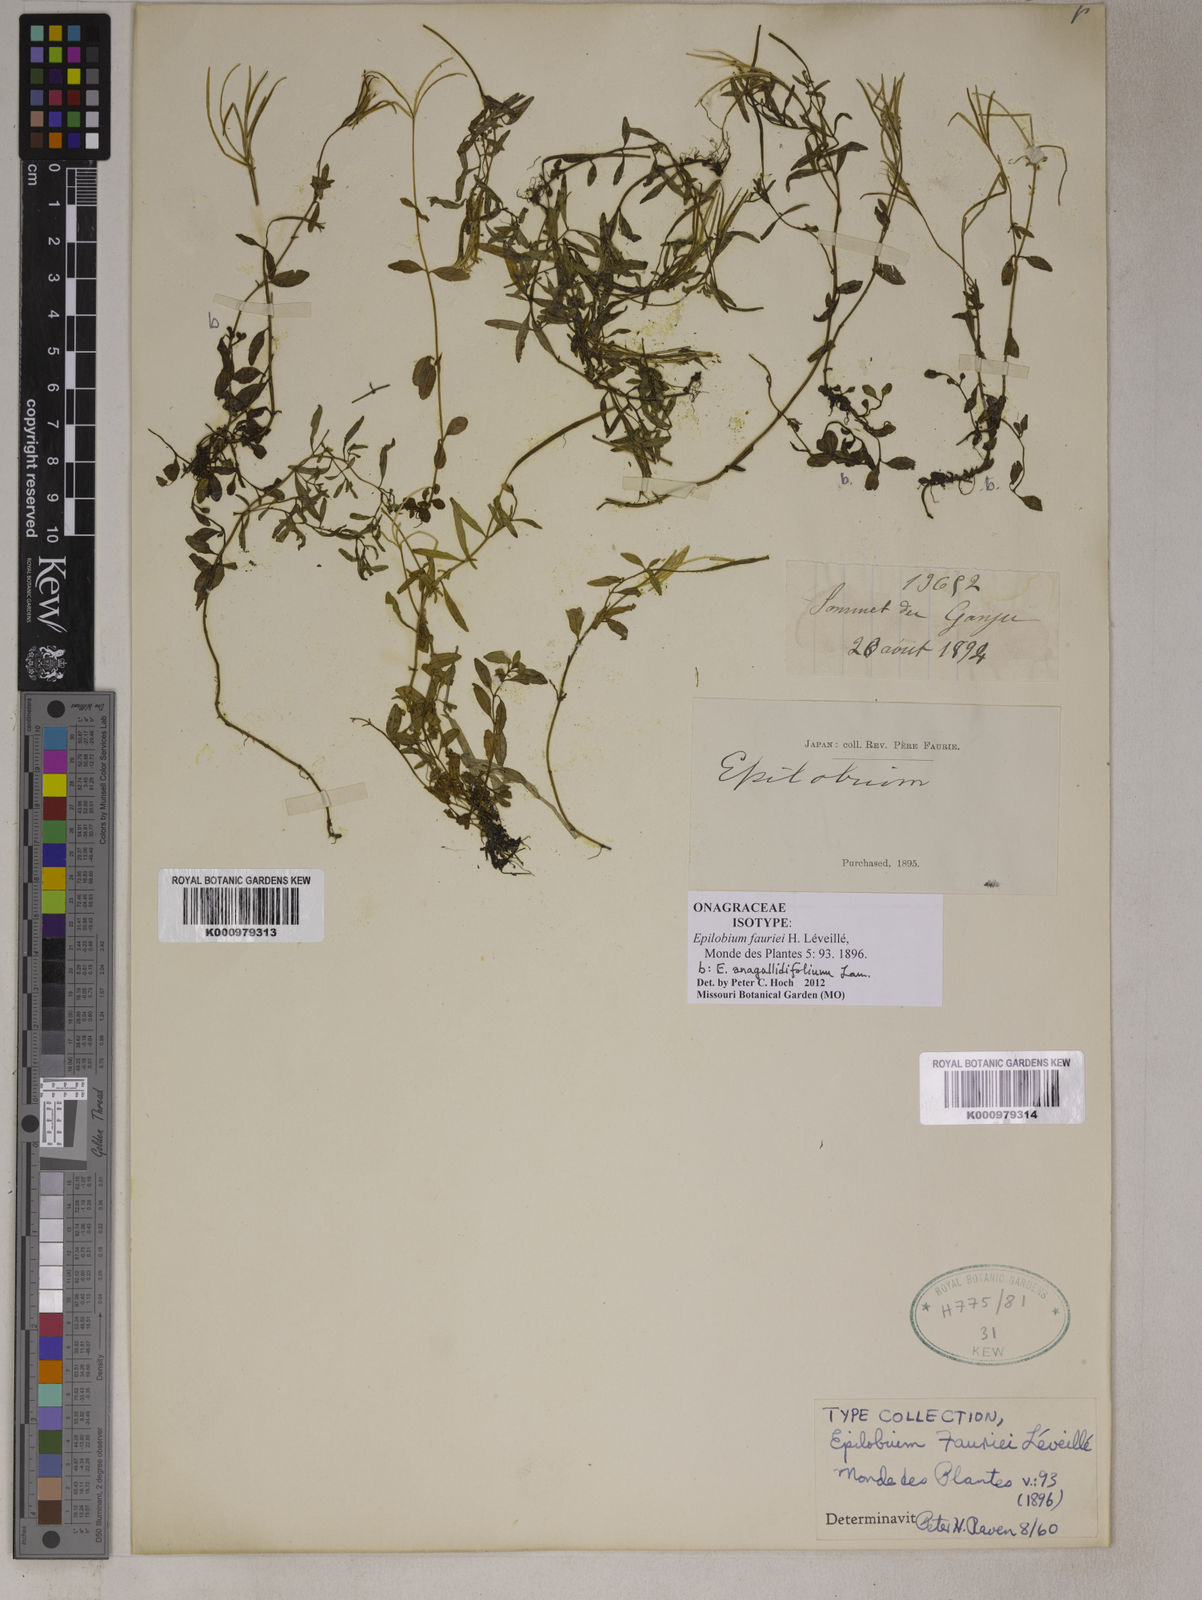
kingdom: Plantae
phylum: Tracheophyta
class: Magnoliopsida
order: Myrtales
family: Onagraceae
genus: Epilobium
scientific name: Epilobium
